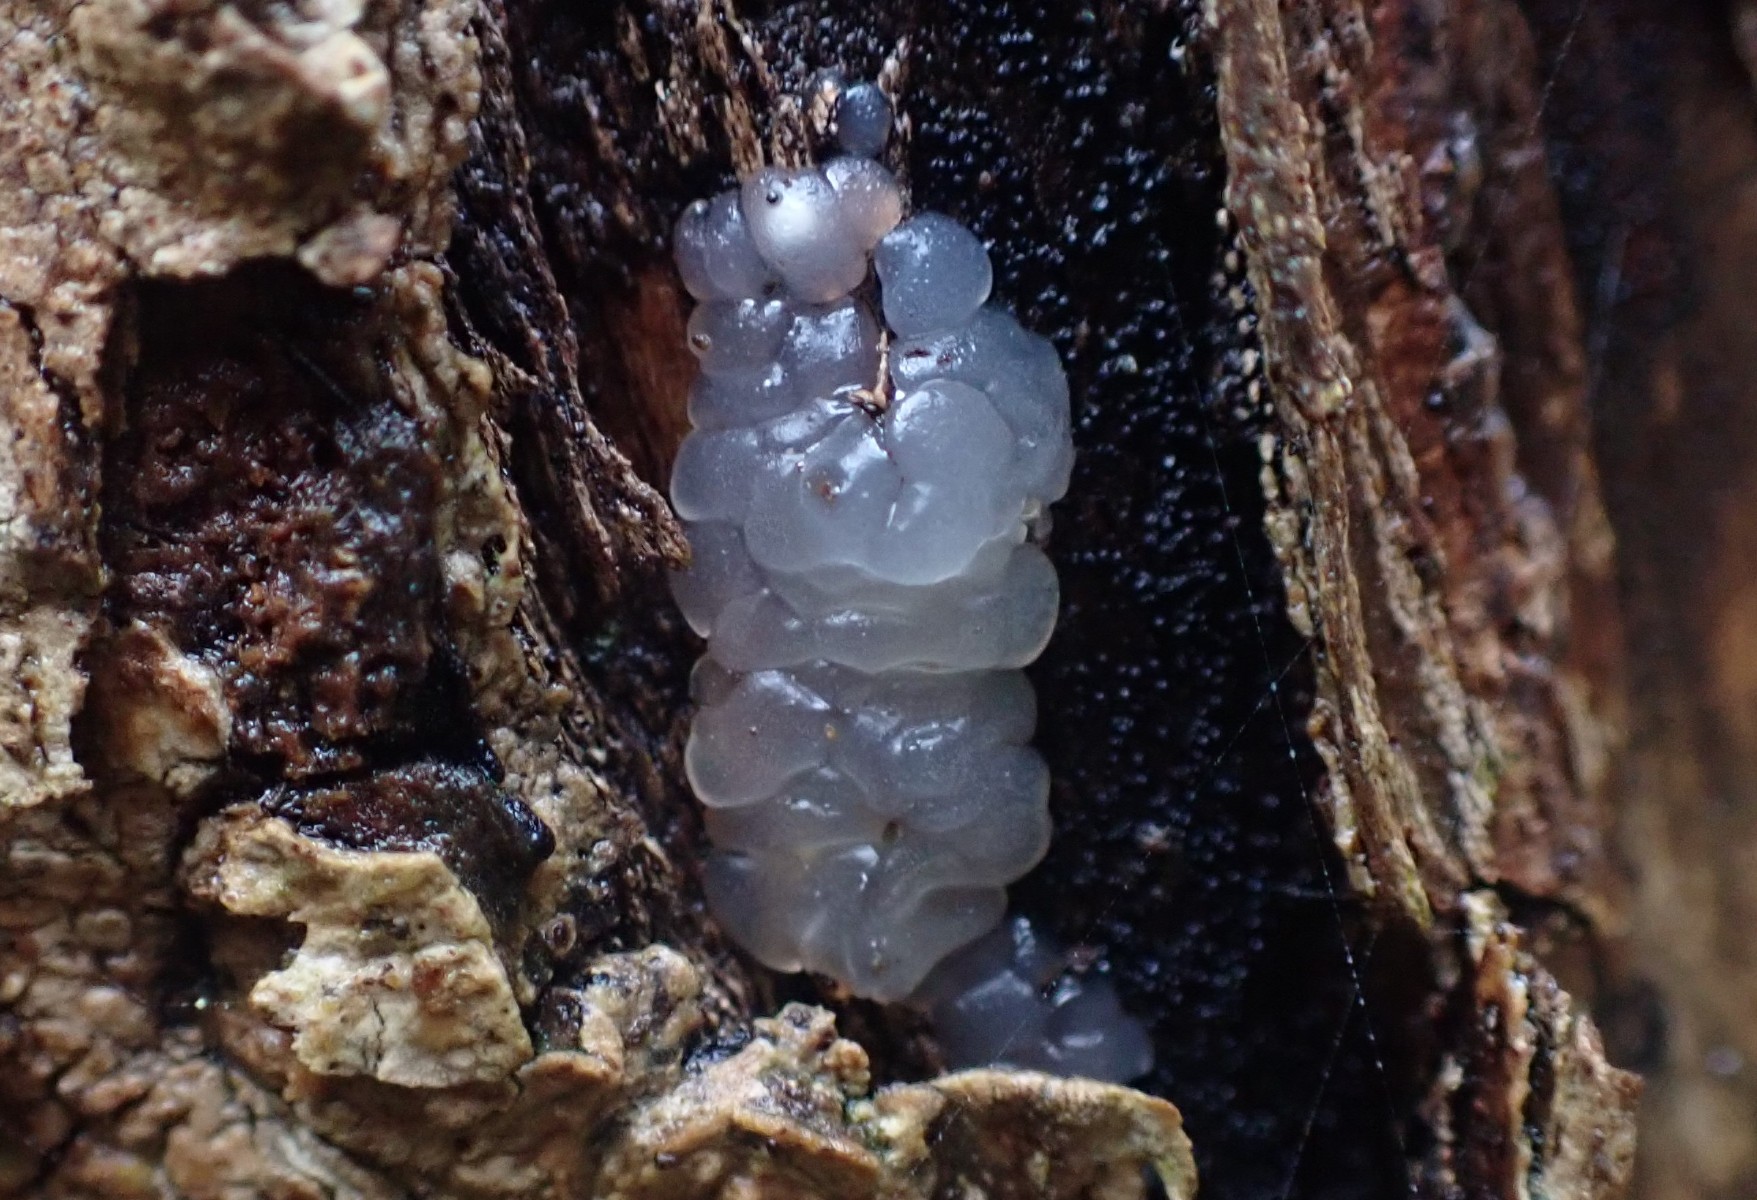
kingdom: Fungi
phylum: Basidiomycota
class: Agaricomycetes
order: Auriculariales
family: Hyaloriaceae
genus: Myxarium
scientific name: Myxarium nucleatum
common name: klar bævretop
